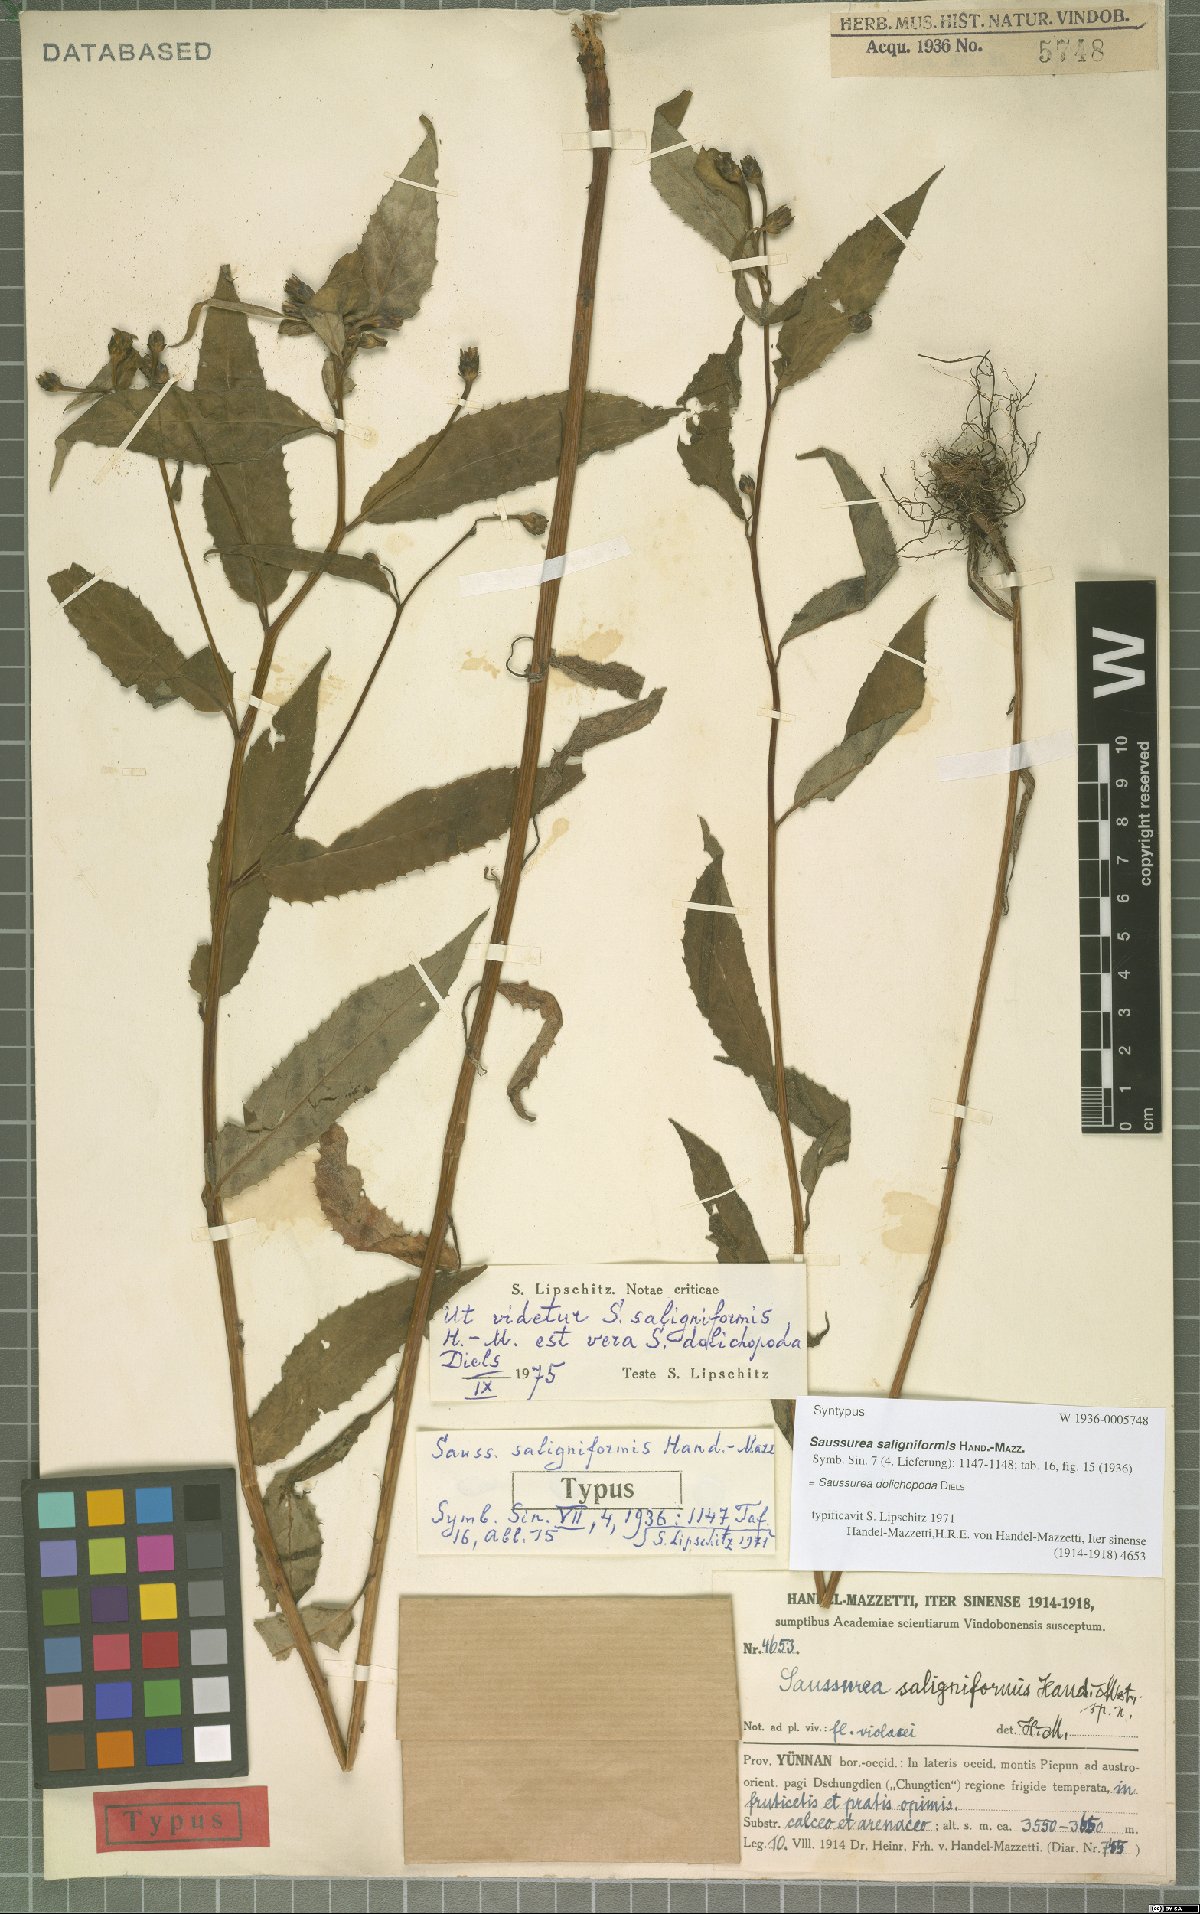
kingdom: Plantae
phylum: Tracheophyta
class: Magnoliopsida
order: Asterales
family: Asteraceae
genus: Saussurea
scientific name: Saussurea dolichopoda
